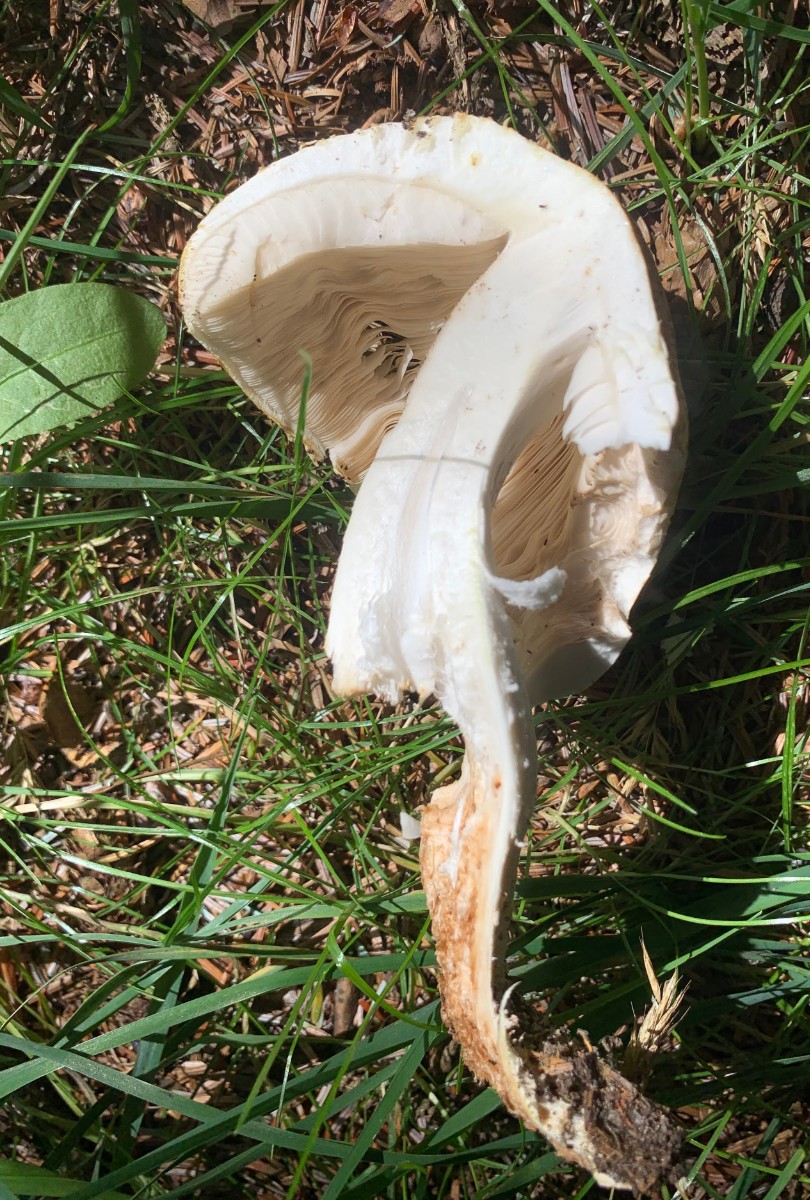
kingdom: Fungi
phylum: Basidiomycota
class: Agaricomycetes
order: Agaricales
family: Agaricaceae
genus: Agaricus
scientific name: Agaricus augustus
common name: prægtig champignon
